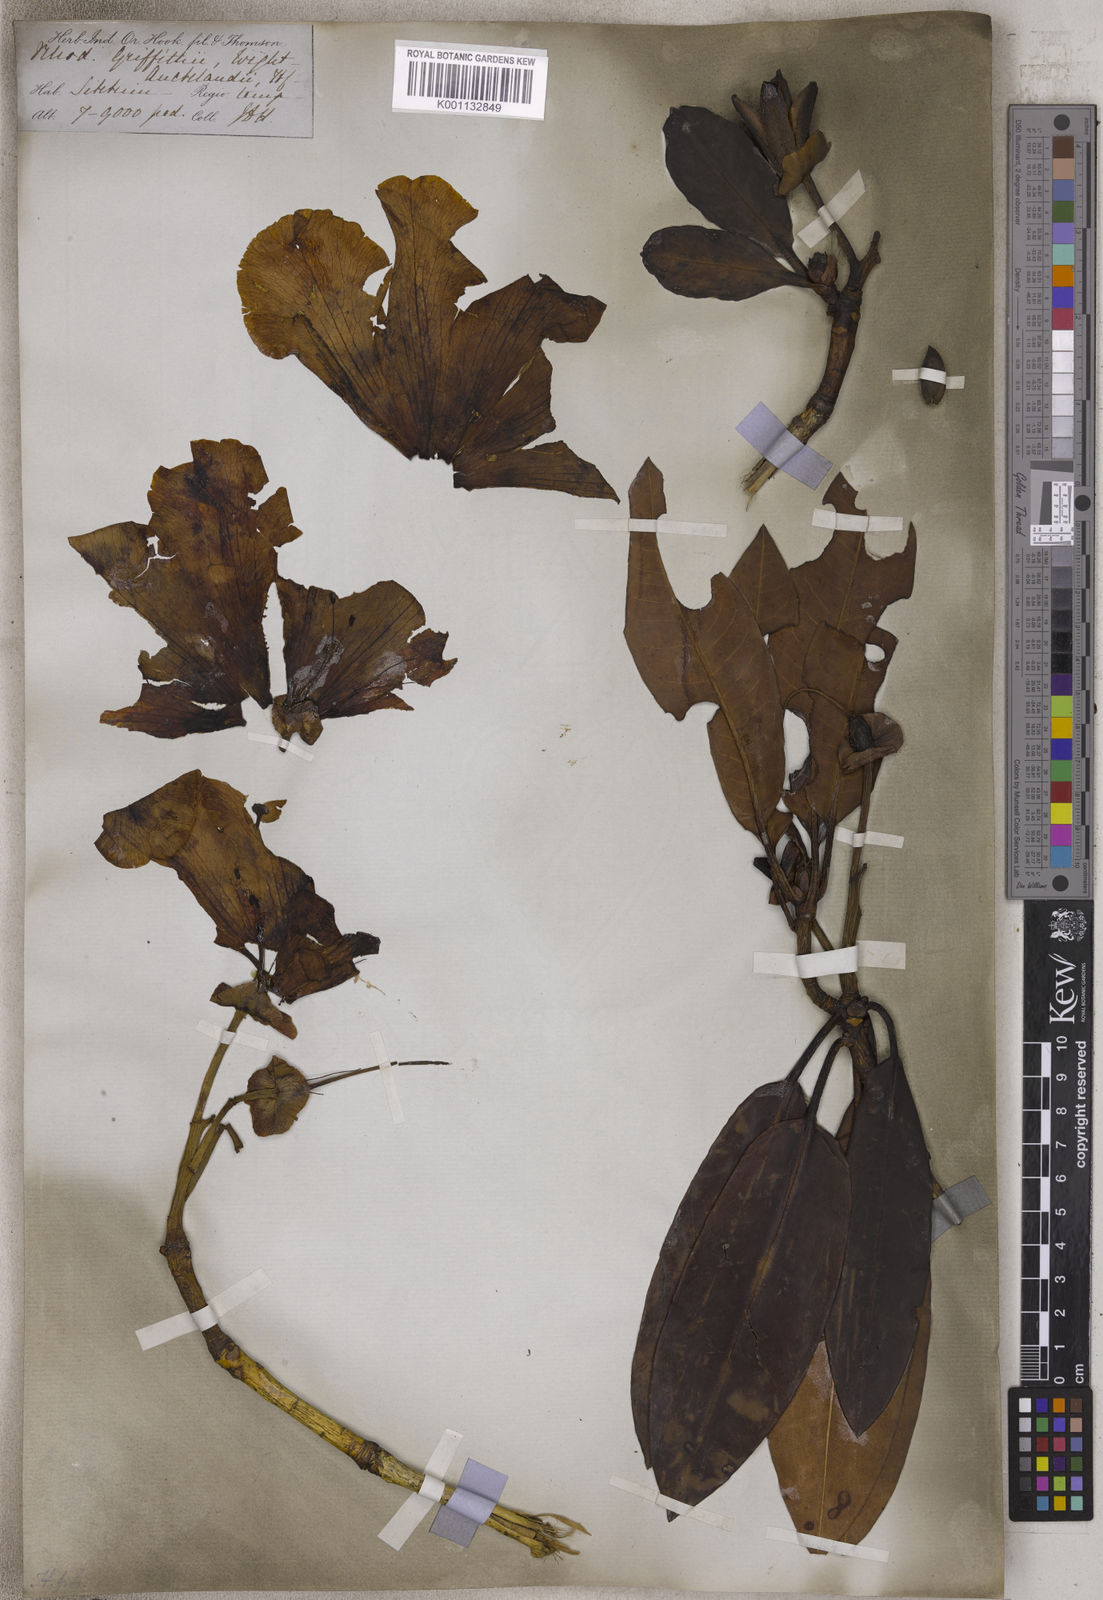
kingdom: Plantae
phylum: Tracheophyta
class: Magnoliopsida
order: Ericales
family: Ericaceae
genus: Rhododendron
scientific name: Rhododendron
